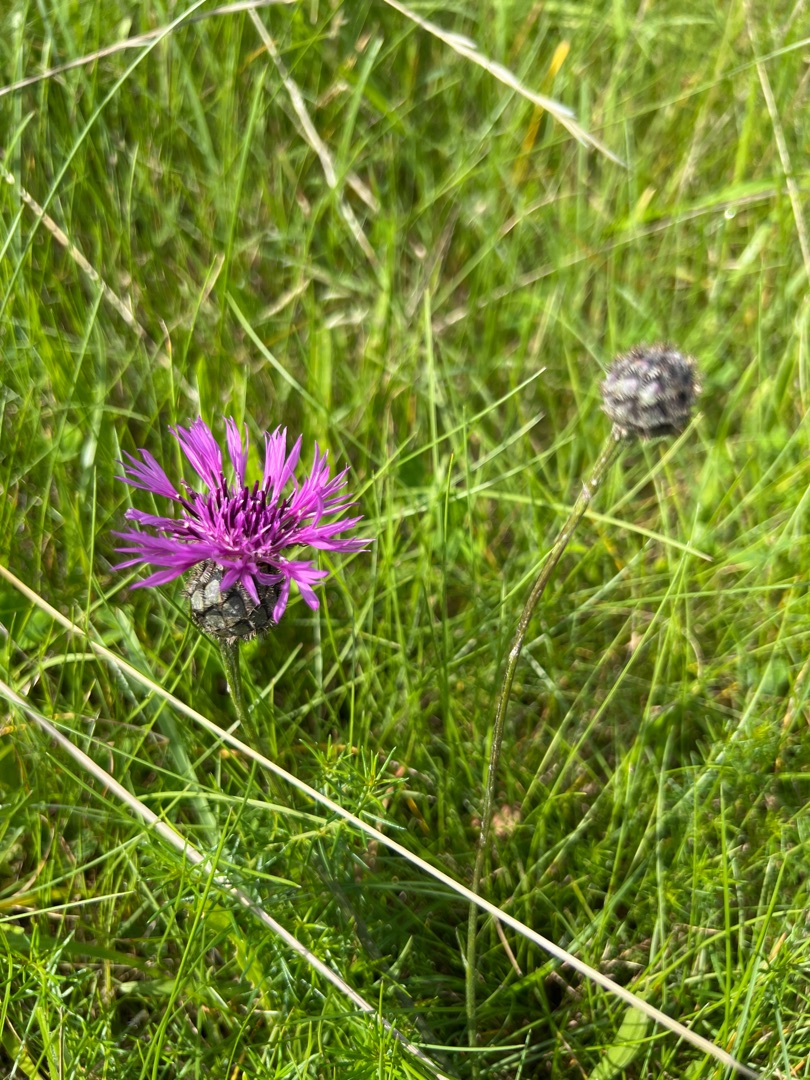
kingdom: Plantae
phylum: Tracheophyta
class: Magnoliopsida
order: Asterales
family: Asteraceae
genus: Centaurea
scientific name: Centaurea scabiosa
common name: Stor knopurt
